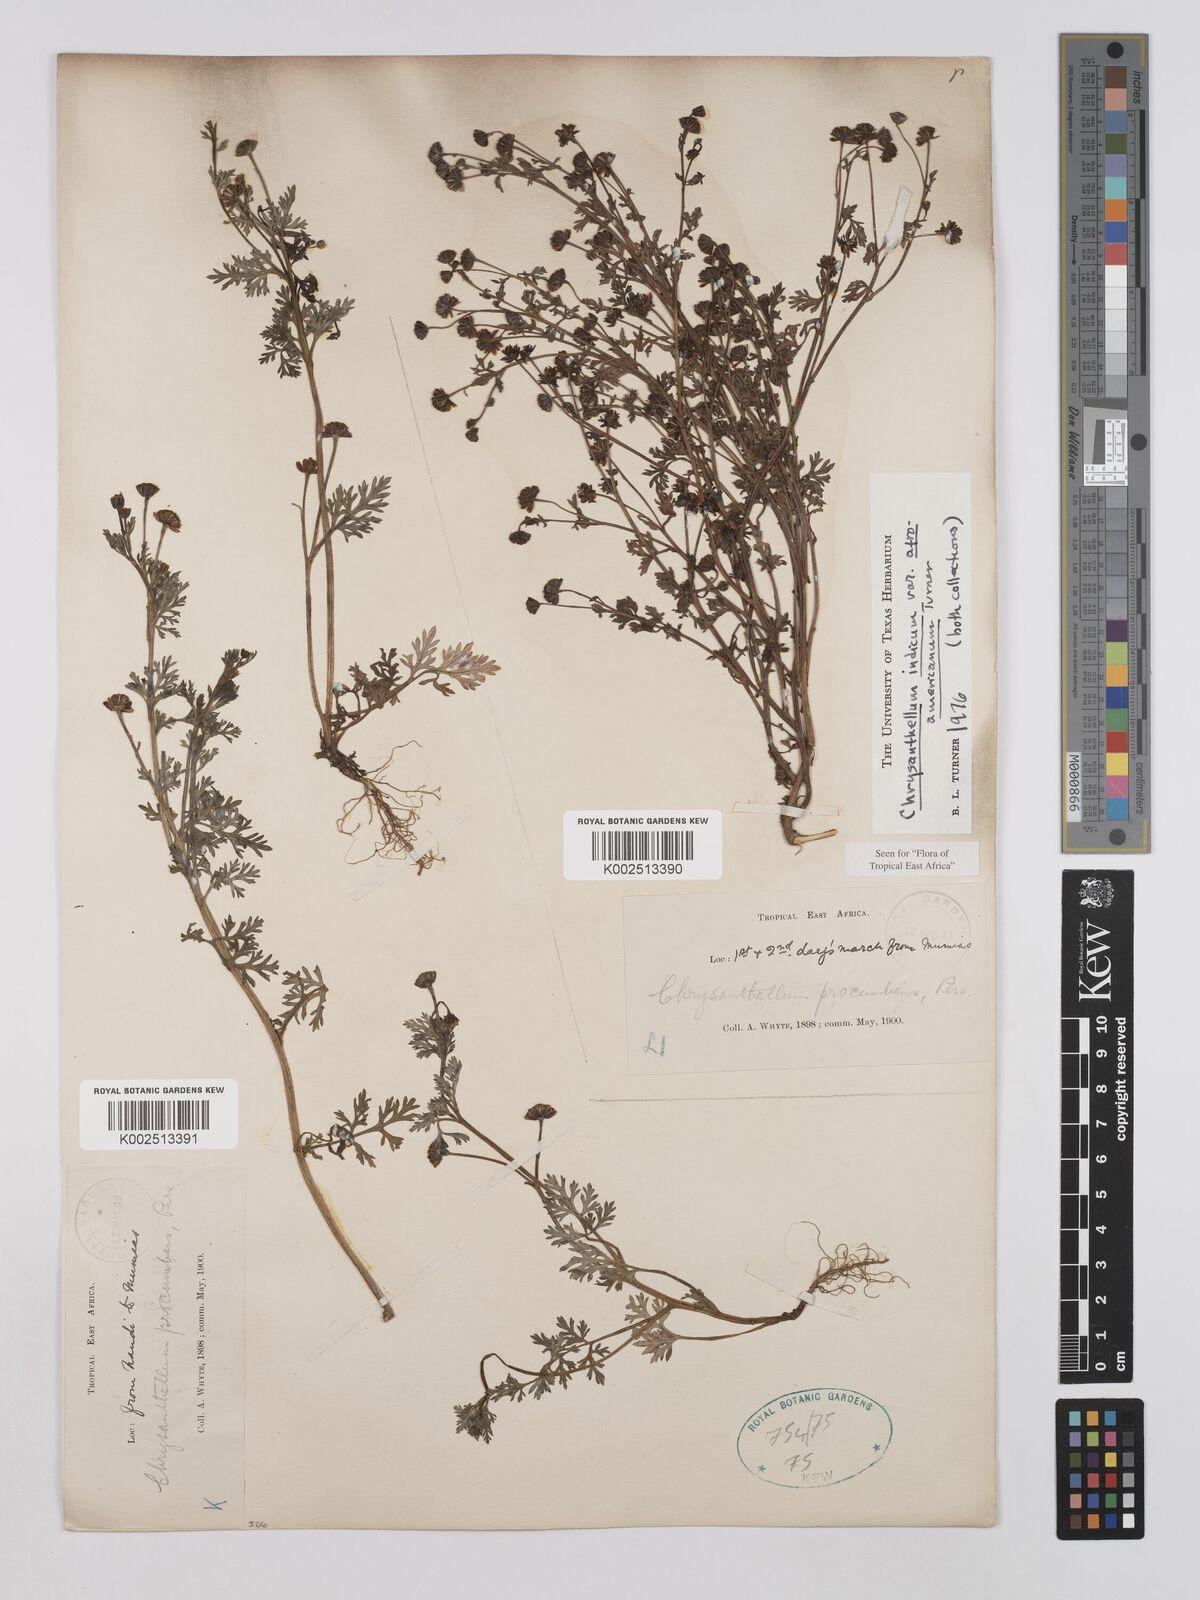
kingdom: Plantae
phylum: Tracheophyta
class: Magnoliopsida
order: Asterales
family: Asteraceae
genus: Chrysanthellum
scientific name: Chrysanthellum indicum
